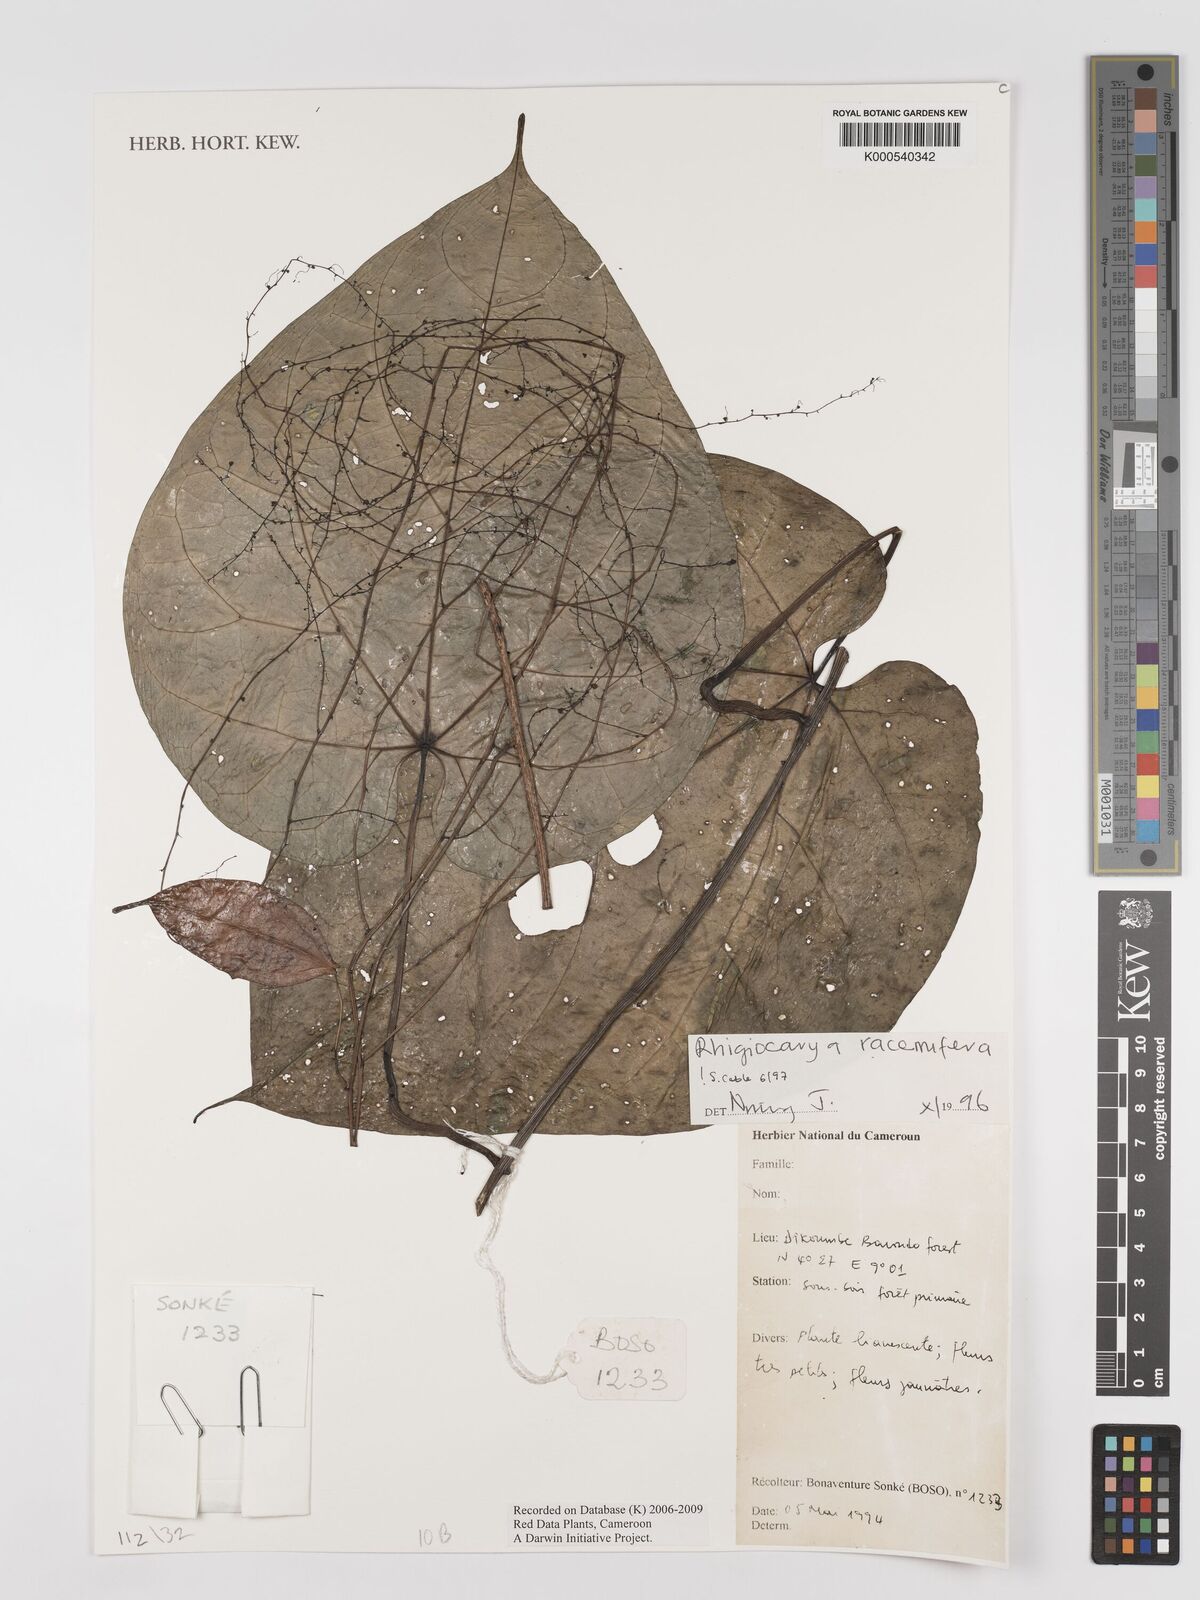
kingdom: Plantae
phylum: Tracheophyta
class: Magnoliopsida
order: Ranunculales
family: Menispermaceae
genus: Rhigiocarya
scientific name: Rhigiocarya racemifera
